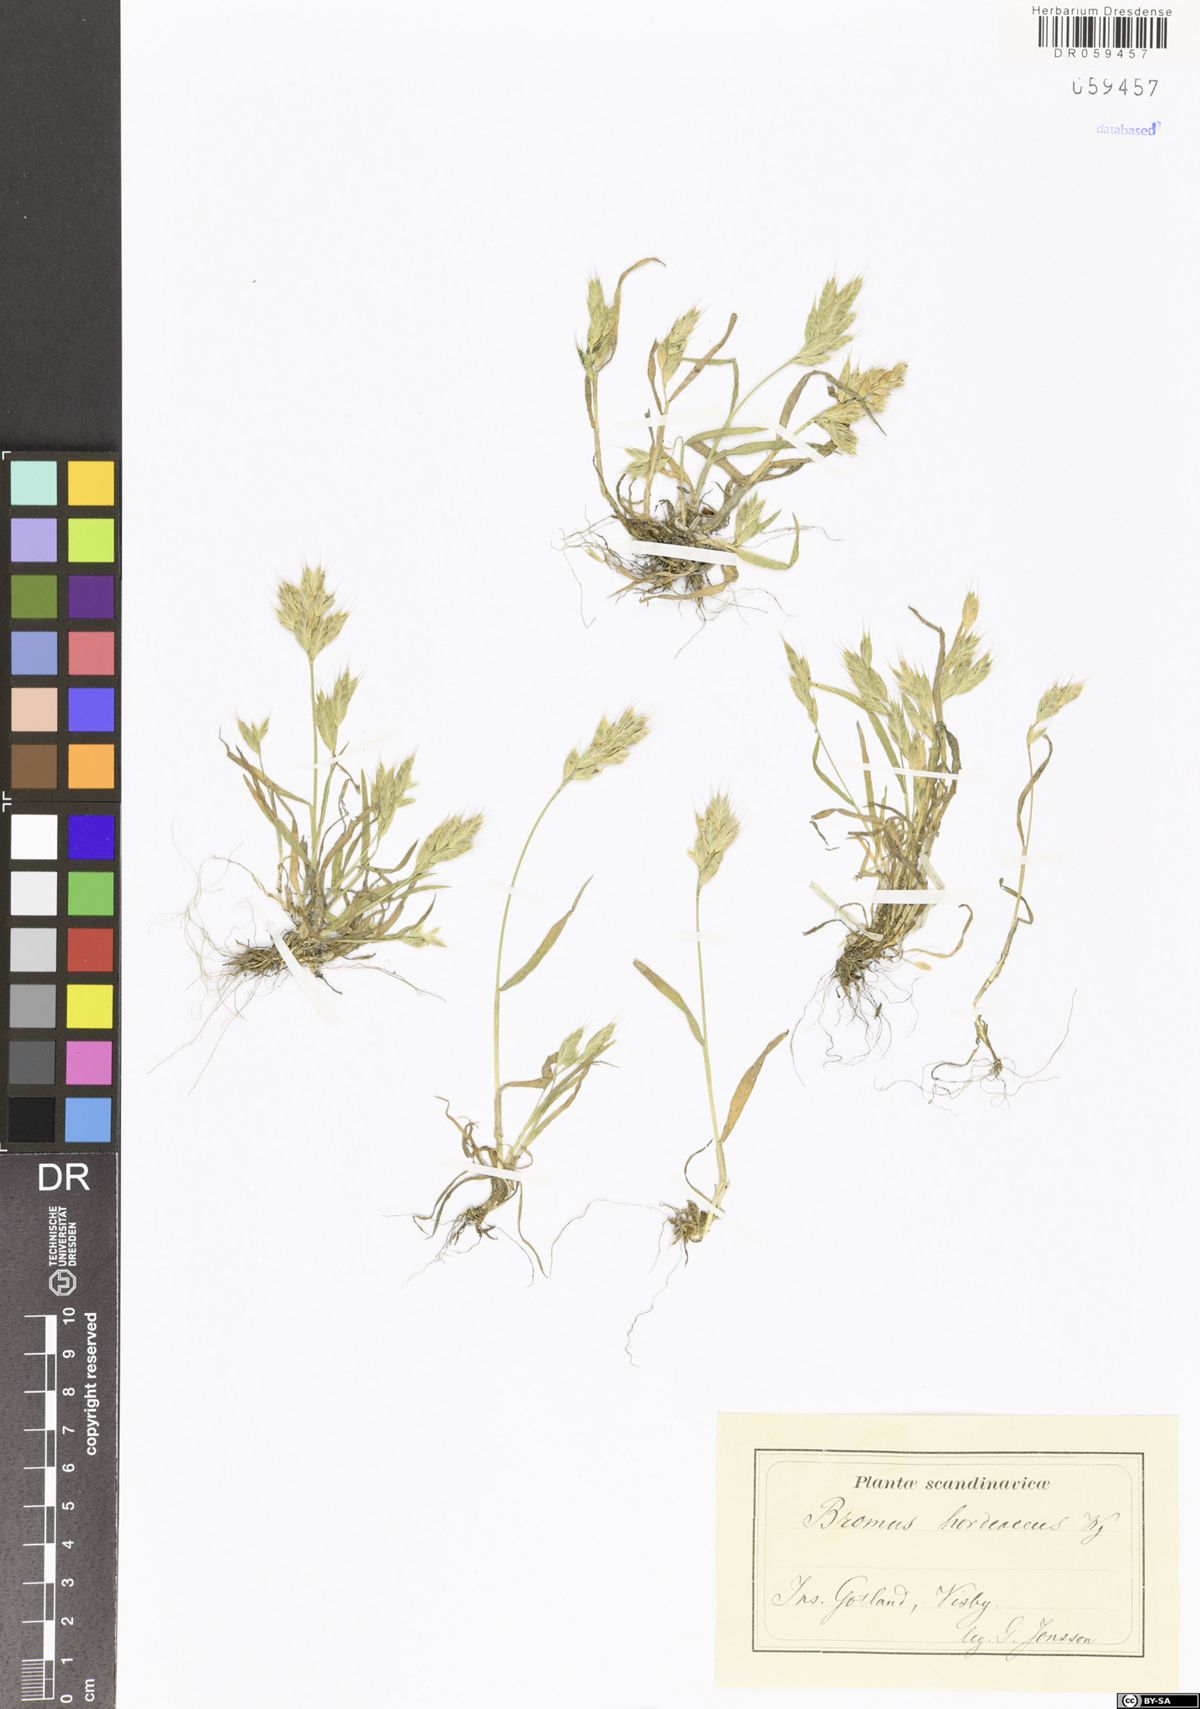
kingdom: Plantae
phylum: Tracheophyta
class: Liliopsida
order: Poales
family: Poaceae
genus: Bromus
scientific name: Bromus hordeaceus
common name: Soft brome
